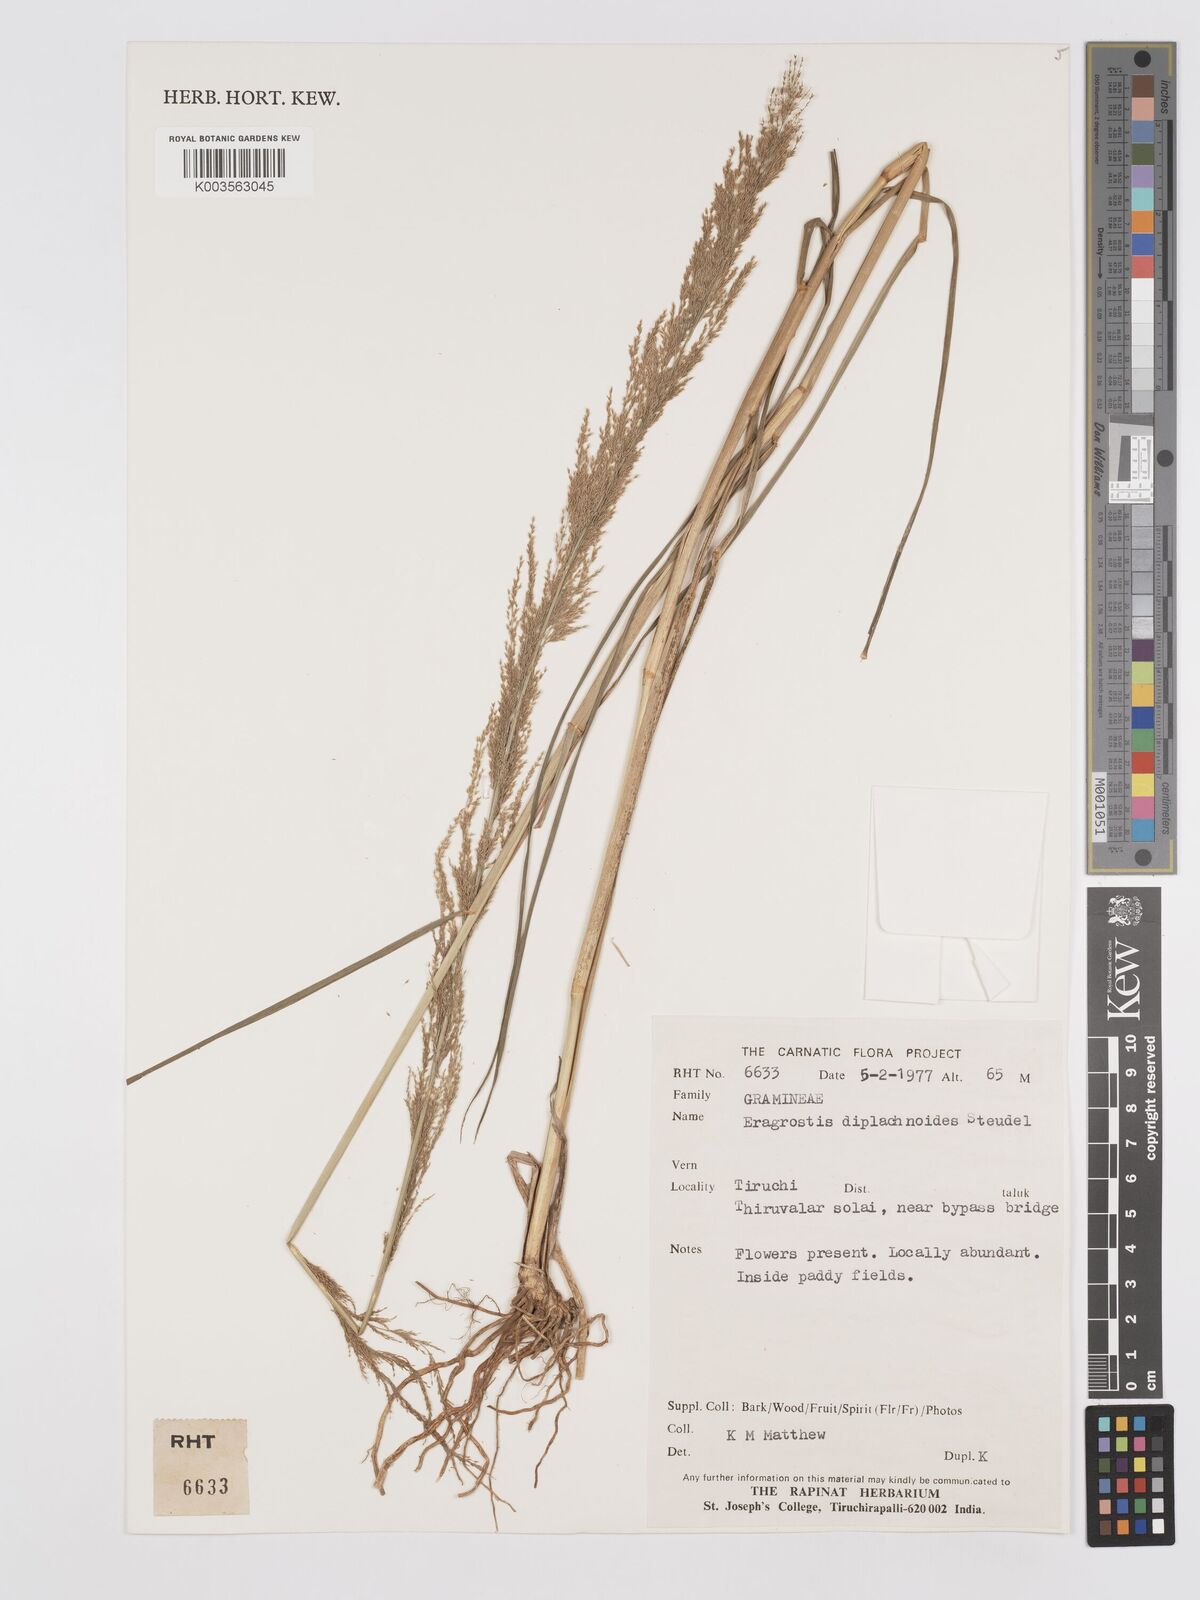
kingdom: Plantae
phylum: Tracheophyta
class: Liliopsida
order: Poales
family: Poaceae
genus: Eragrostis
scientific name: Eragrostis japonica
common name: Pond lovegrass
